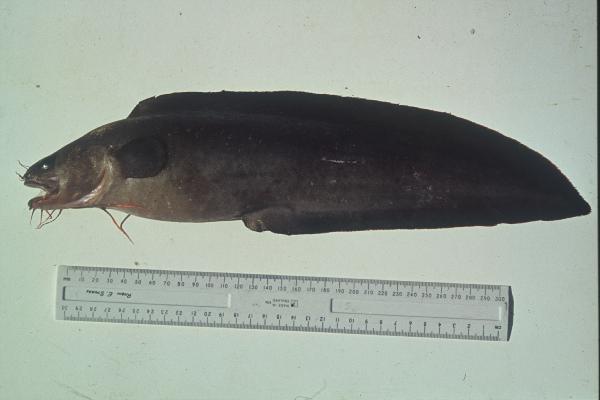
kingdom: Animalia
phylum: Chordata
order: Ophidiiformes
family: Ophidiidae
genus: Brotula
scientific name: Brotula multibarbata
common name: Goatsbeard brotula
